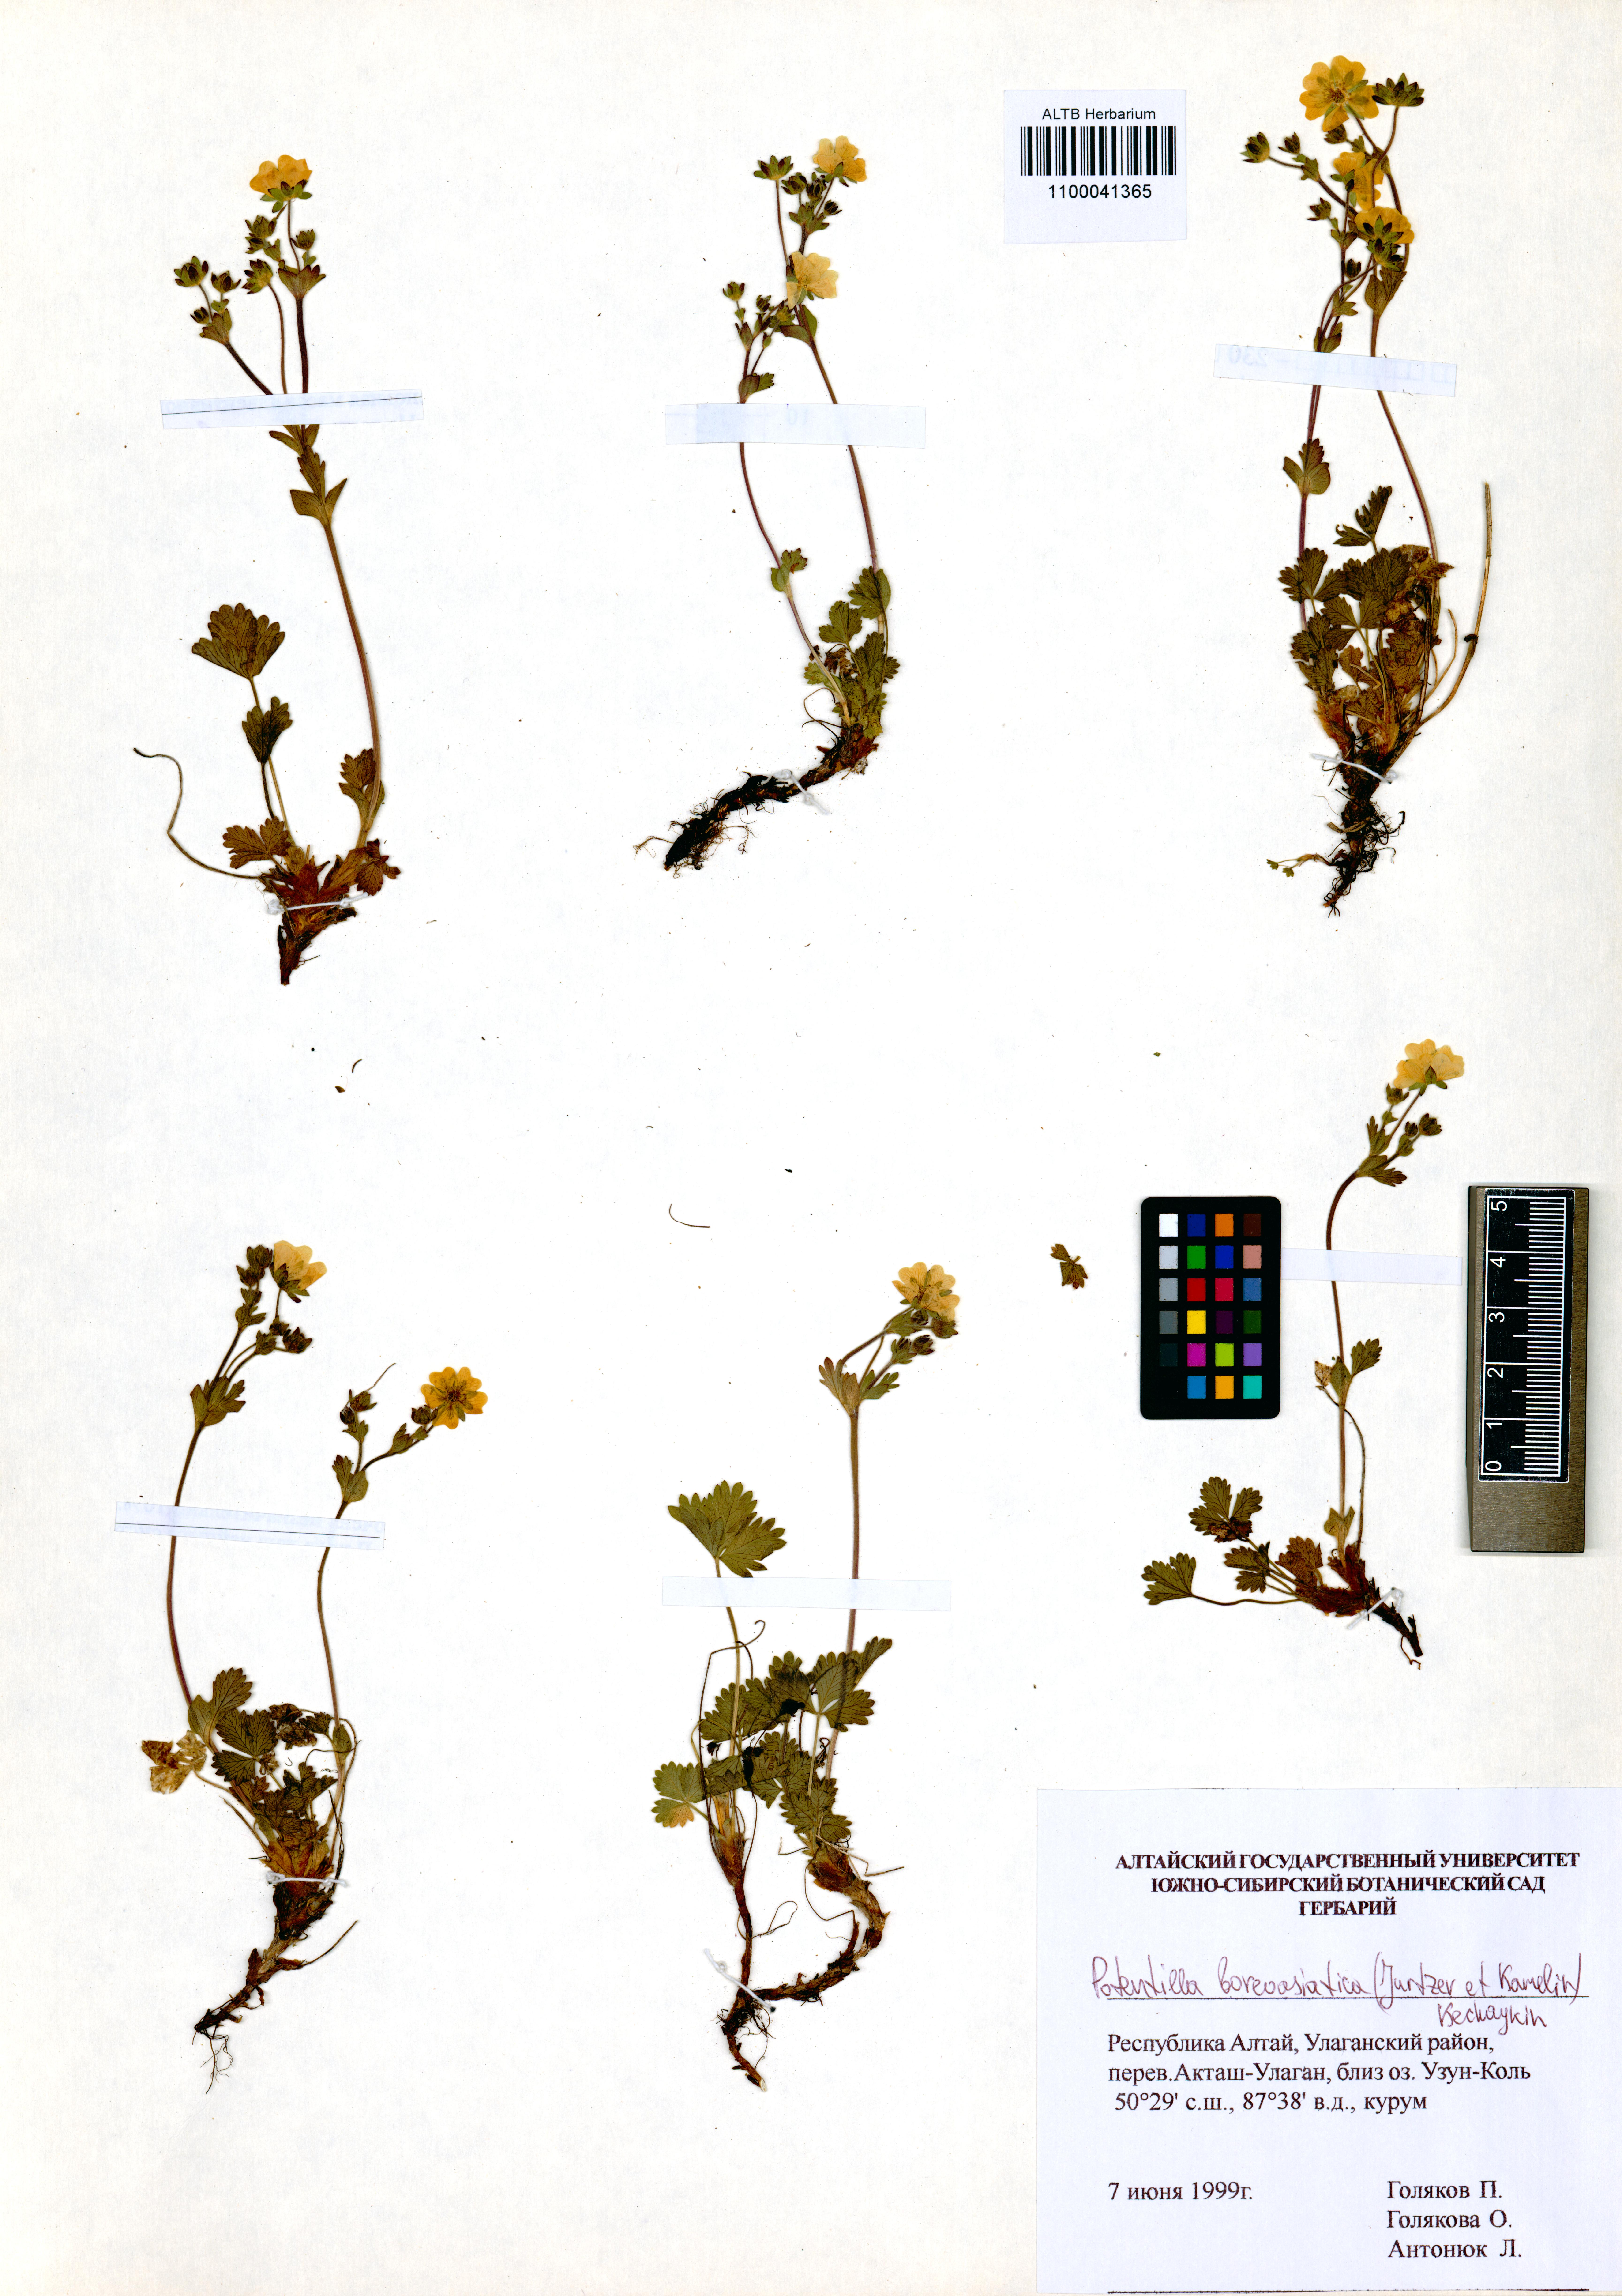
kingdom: Plantae
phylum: Tracheophyta
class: Magnoliopsida
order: Rosales
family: Rosaceae
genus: Potentilla
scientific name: Potentilla
